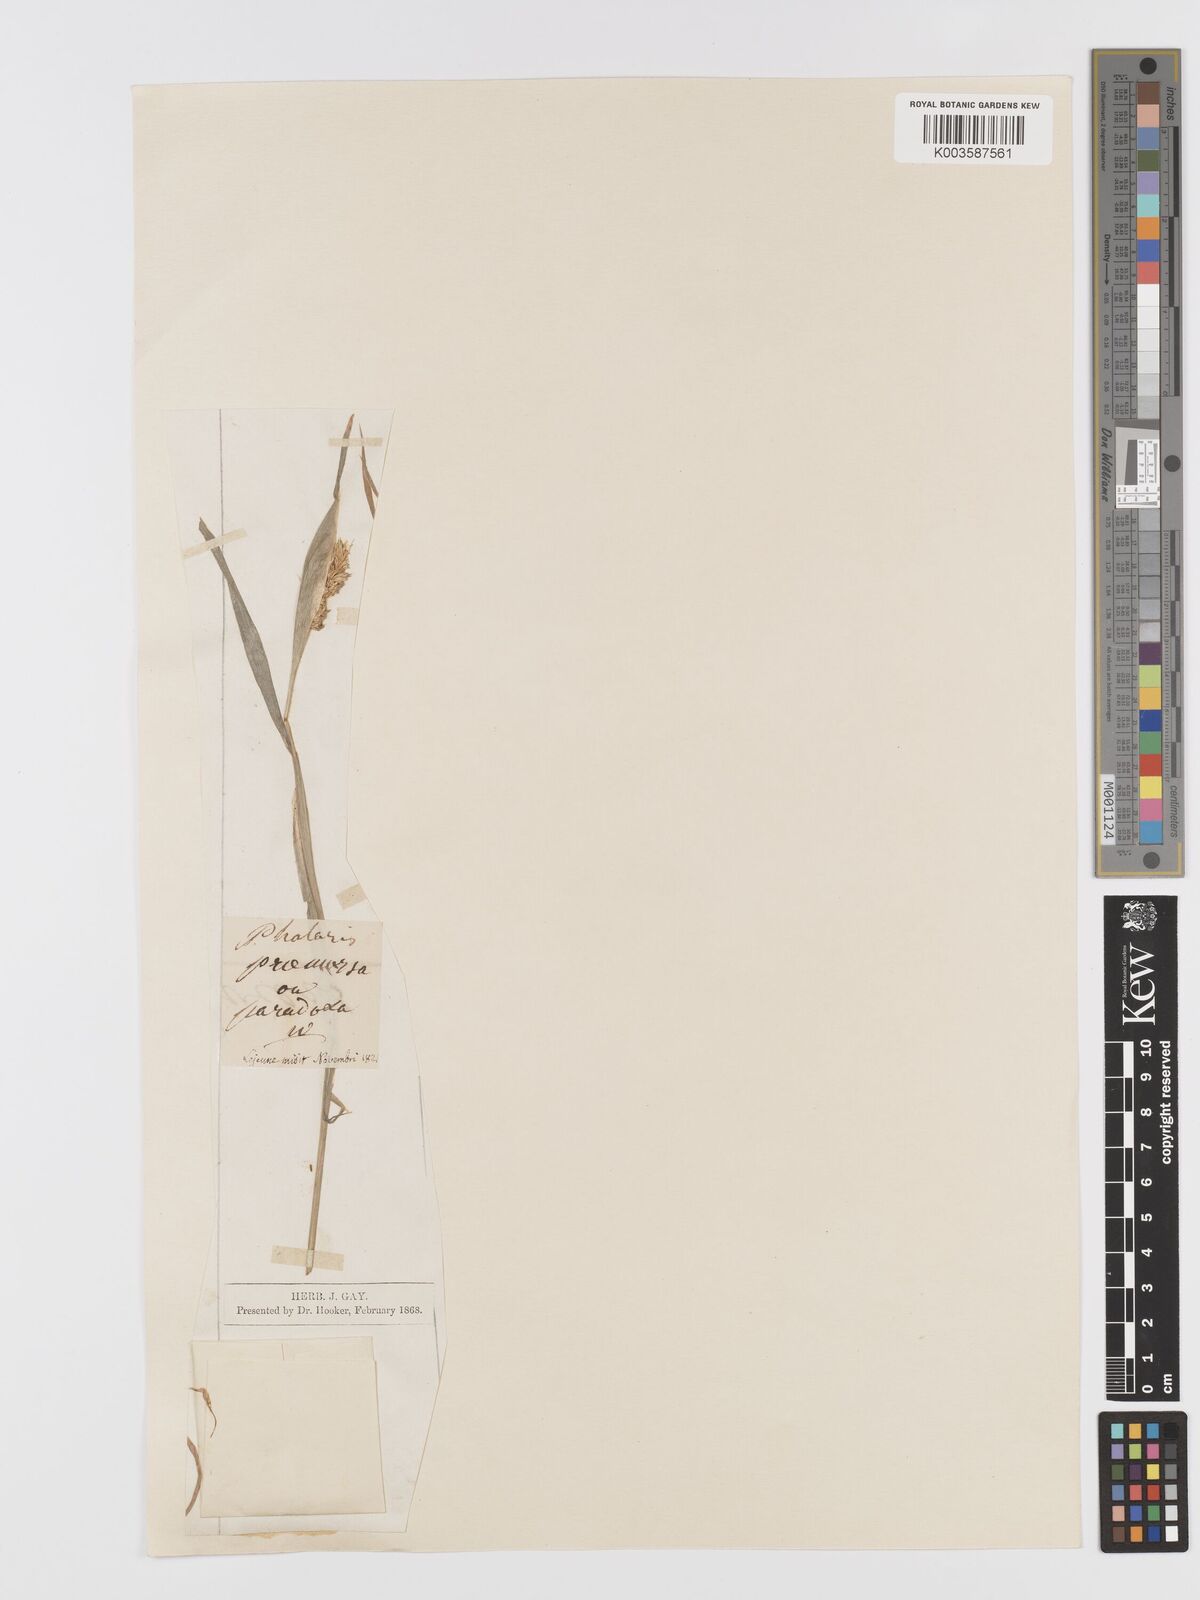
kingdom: Plantae
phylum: Tracheophyta
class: Liliopsida
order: Poales
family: Poaceae
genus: Phalaris
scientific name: Phalaris paradoxa
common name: Awned canary-grass
